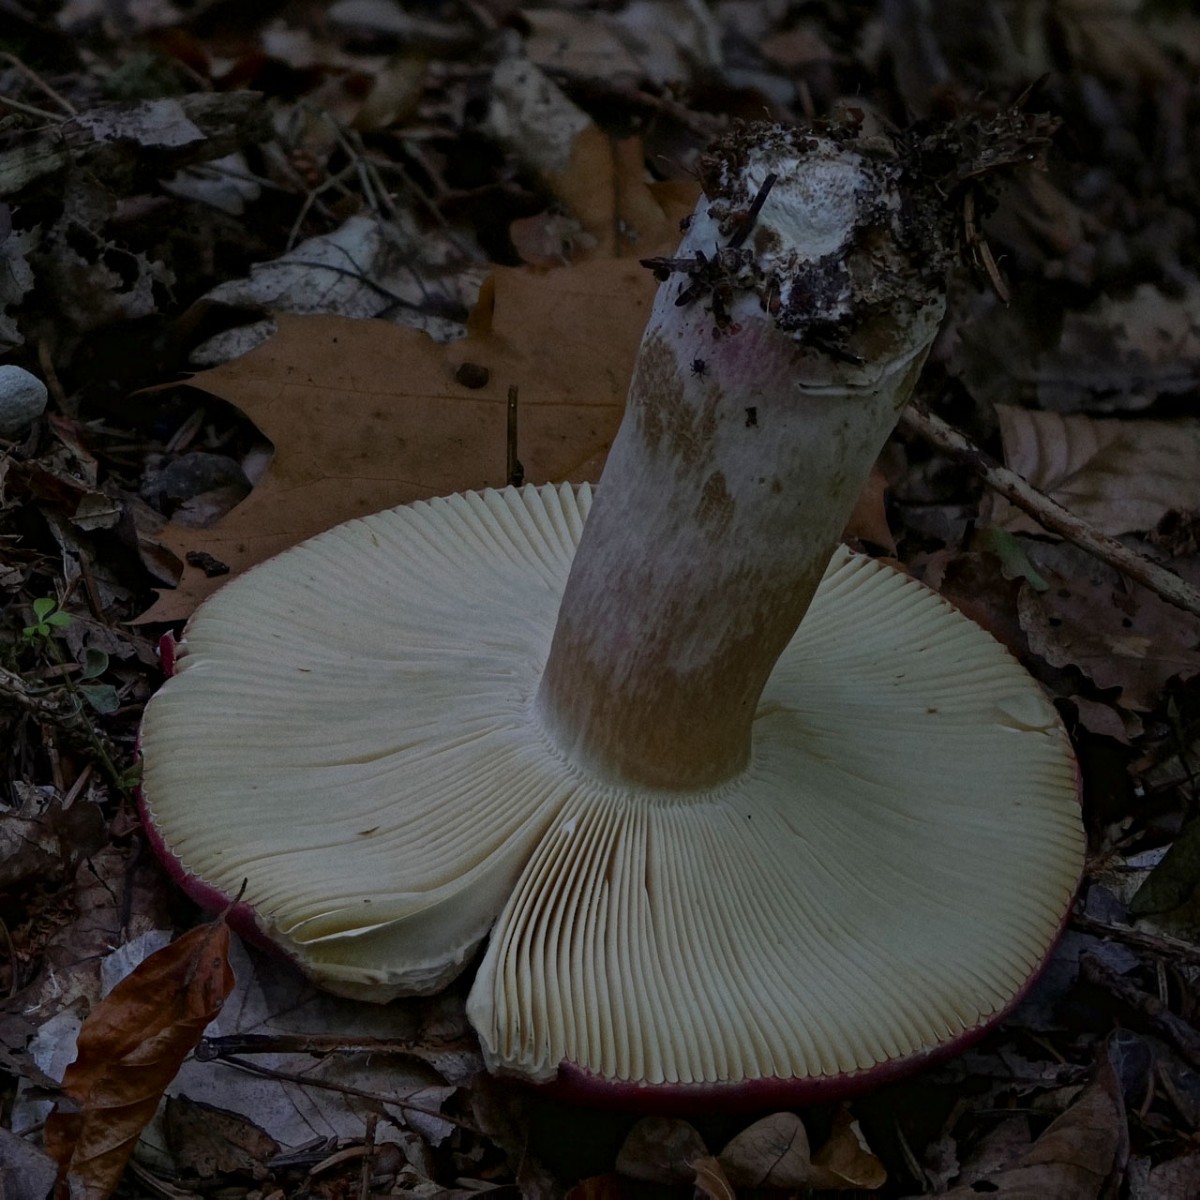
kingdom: Fungi
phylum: Basidiomycota
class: Agaricomycetes
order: Russulales
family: Russulaceae
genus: Russula
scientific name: Russula xerampelina
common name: hummer-skørhat
